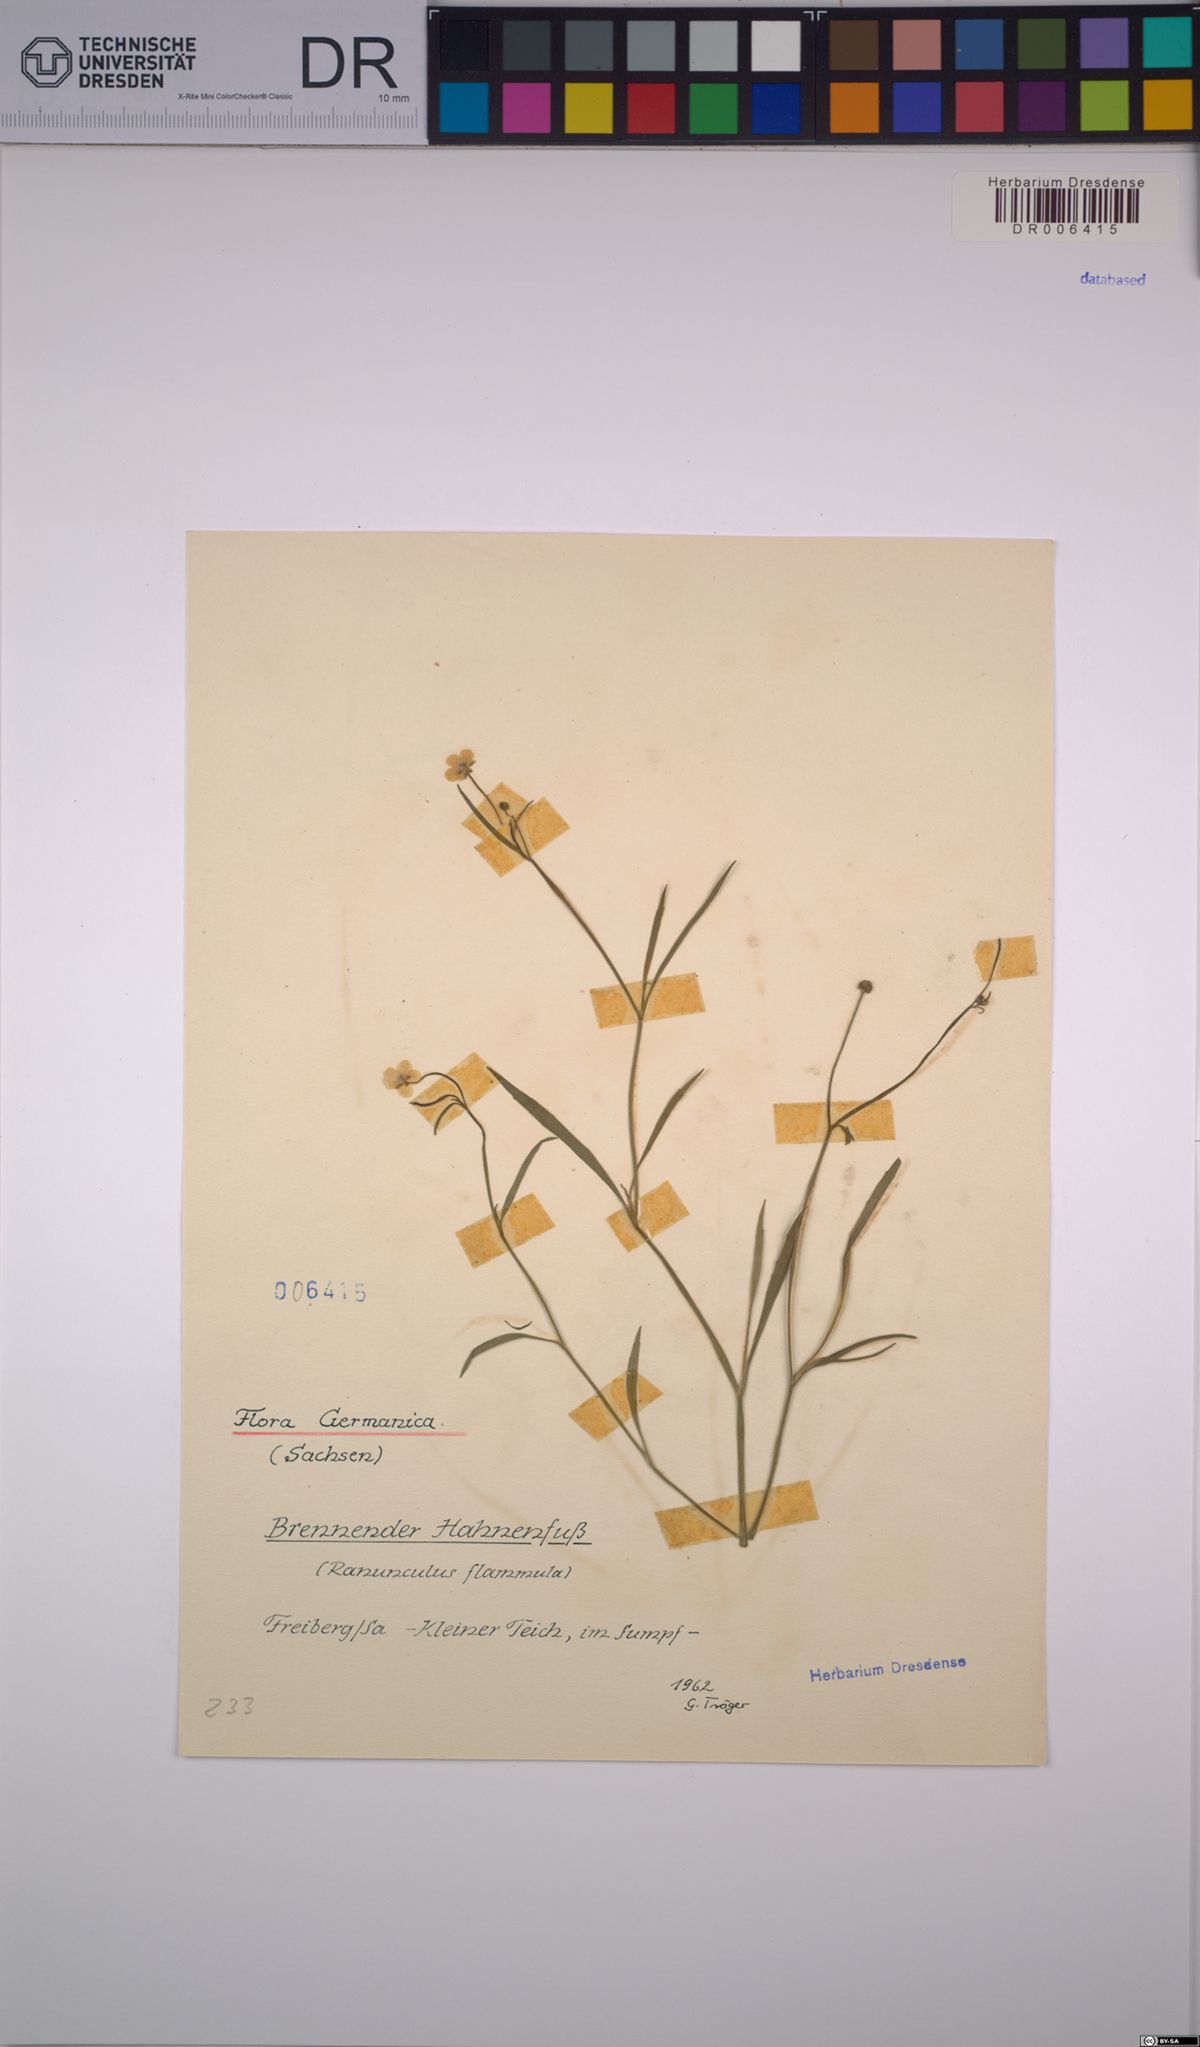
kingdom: Plantae
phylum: Tracheophyta
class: Magnoliopsida
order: Ranunculales
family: Ranunculaceae
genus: Ranunculus
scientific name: Ranunculus flammula
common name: Lesser spearwort
